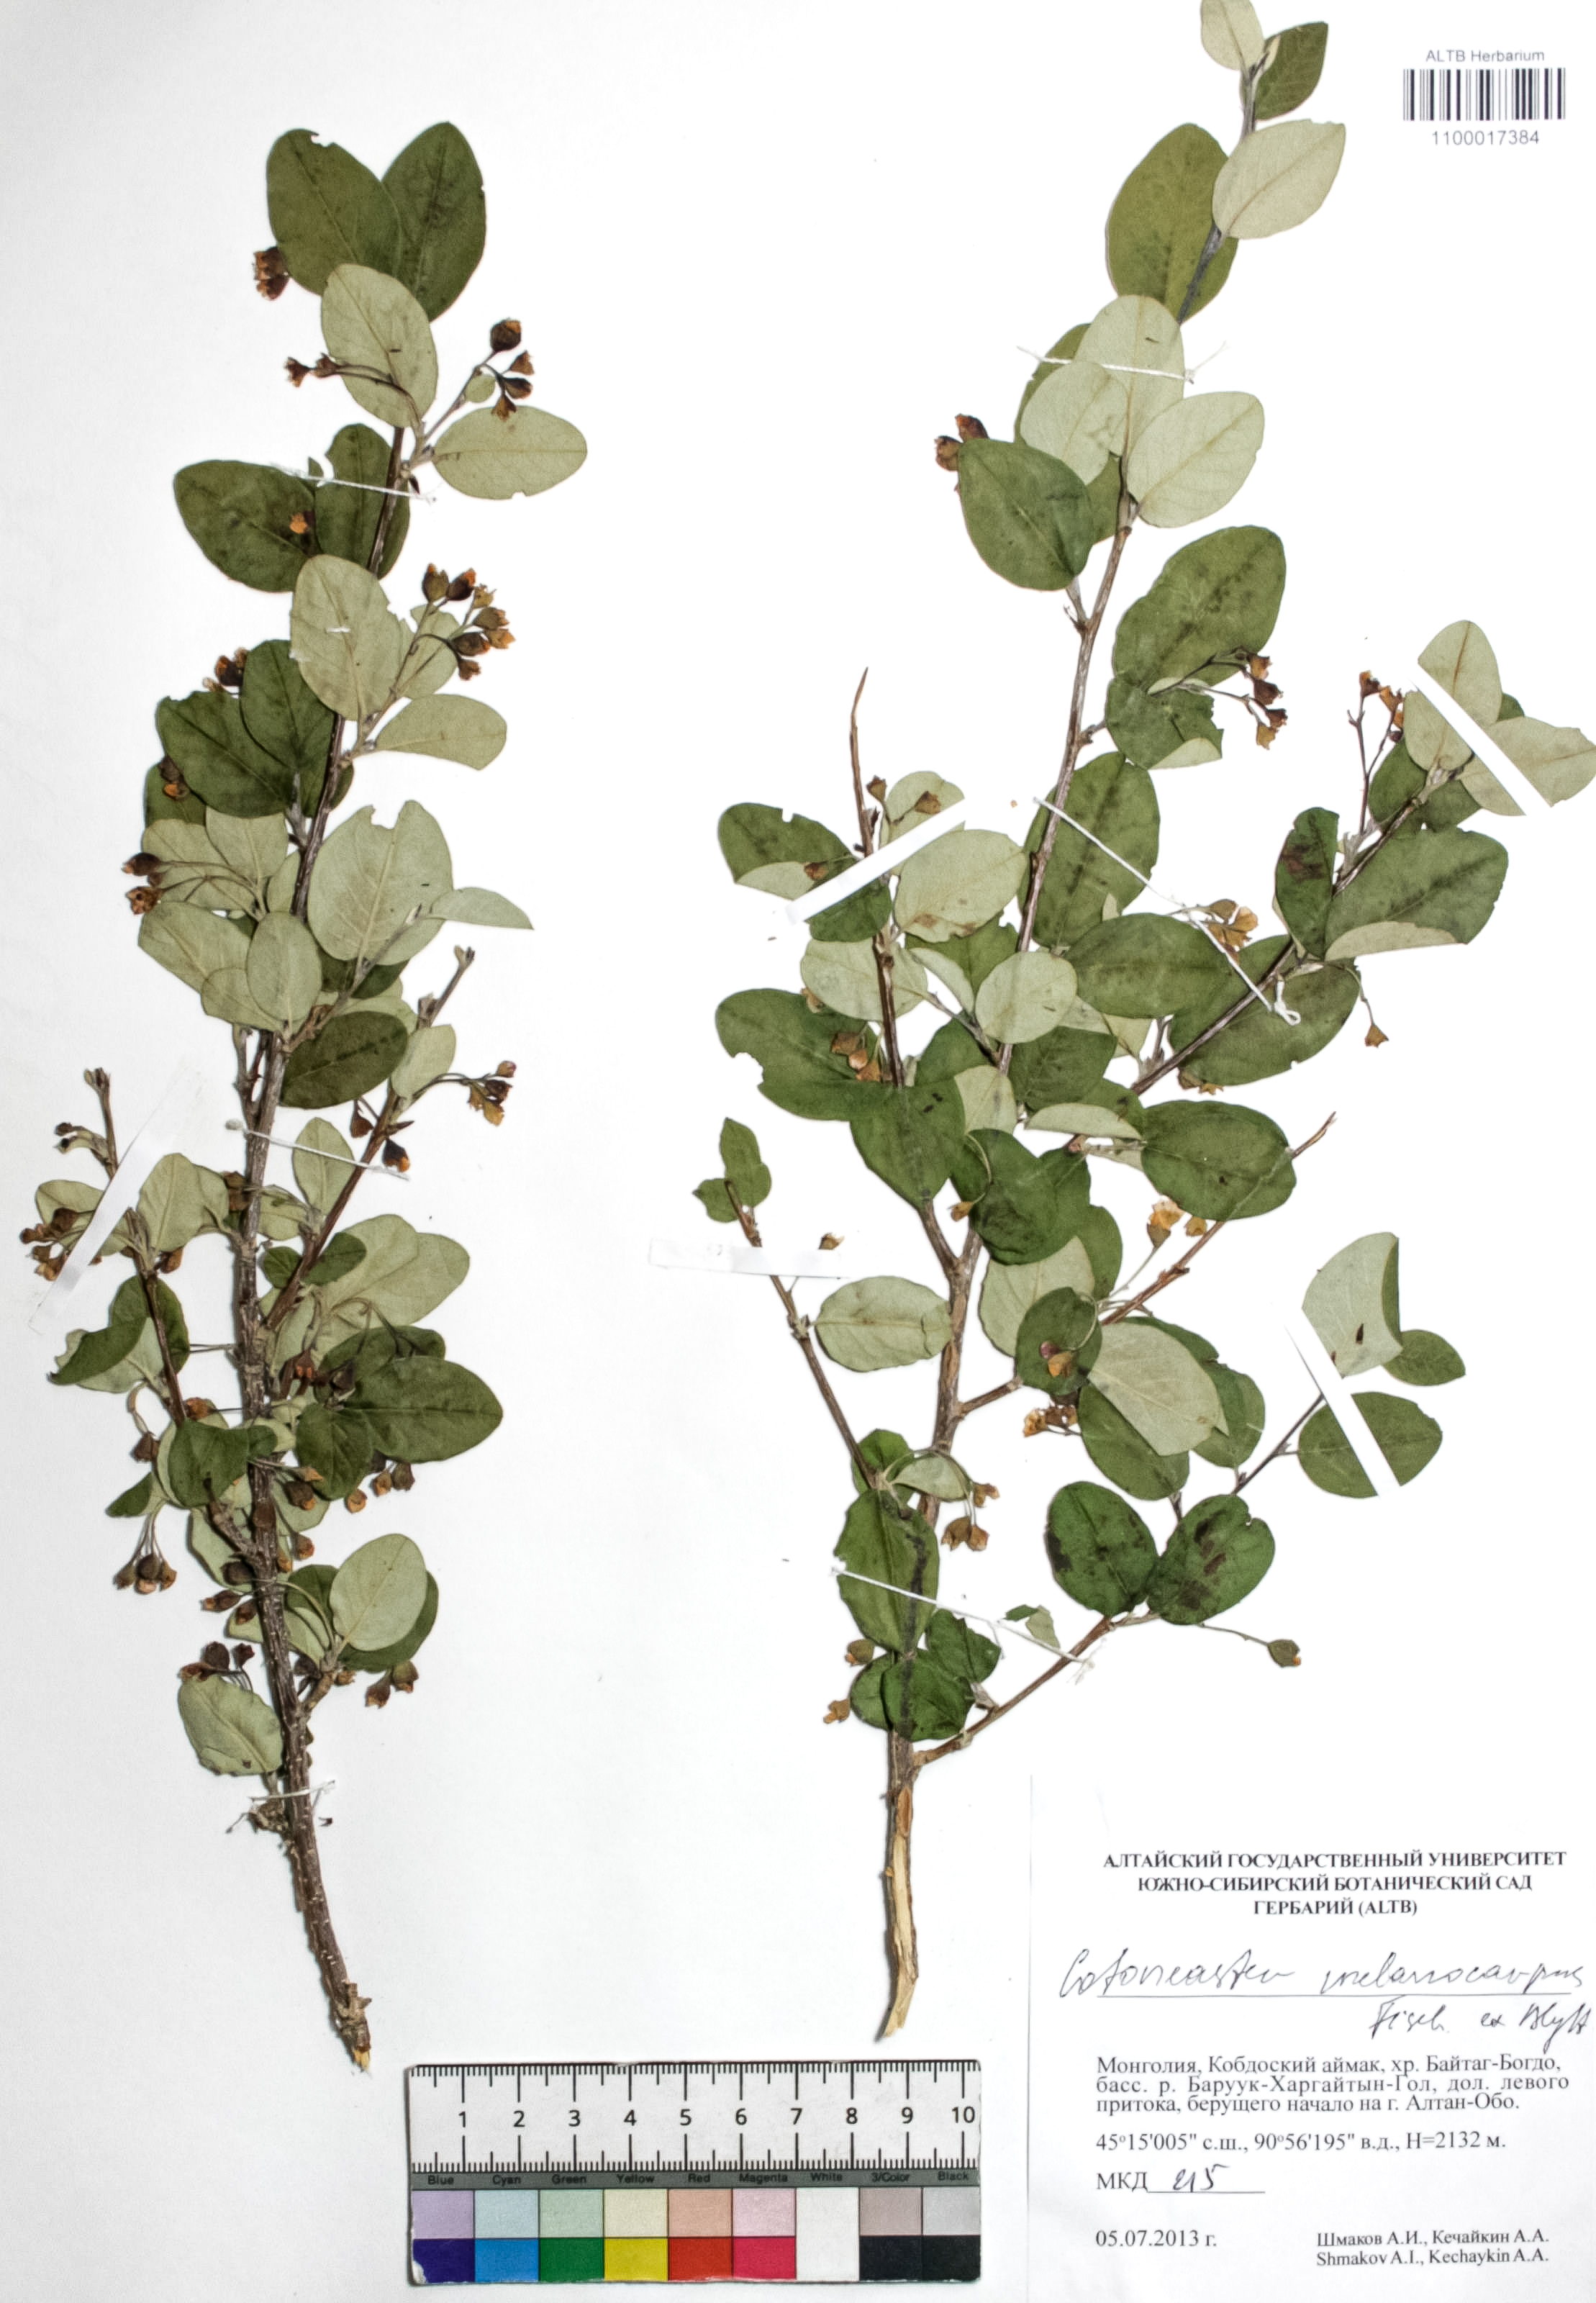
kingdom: Plantae
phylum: Tracheophyta
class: Magnoliopsida
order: Rosales
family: Rosaceae
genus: Cotoneaster
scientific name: Cotoneaster niger
